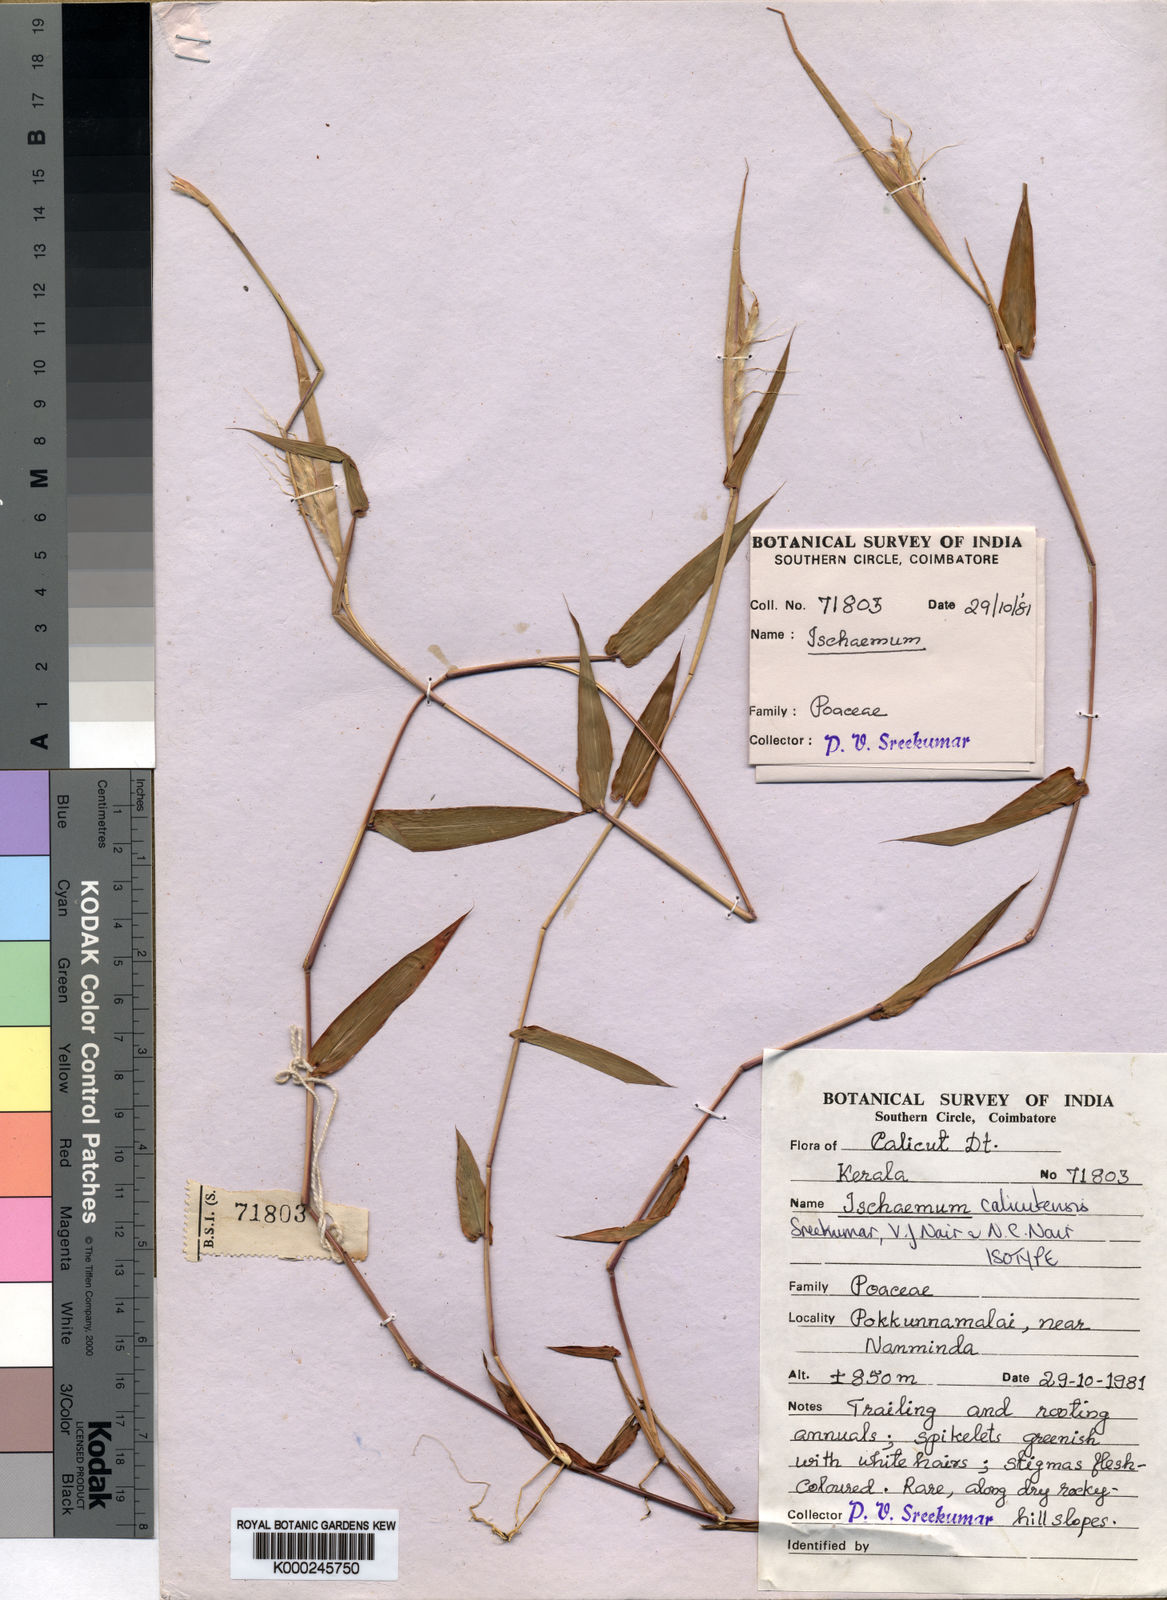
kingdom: Plantae
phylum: Tracheophyta
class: Liliopsida
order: Poales
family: Poaceae
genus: Ischaemum
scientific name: Ischaemum
